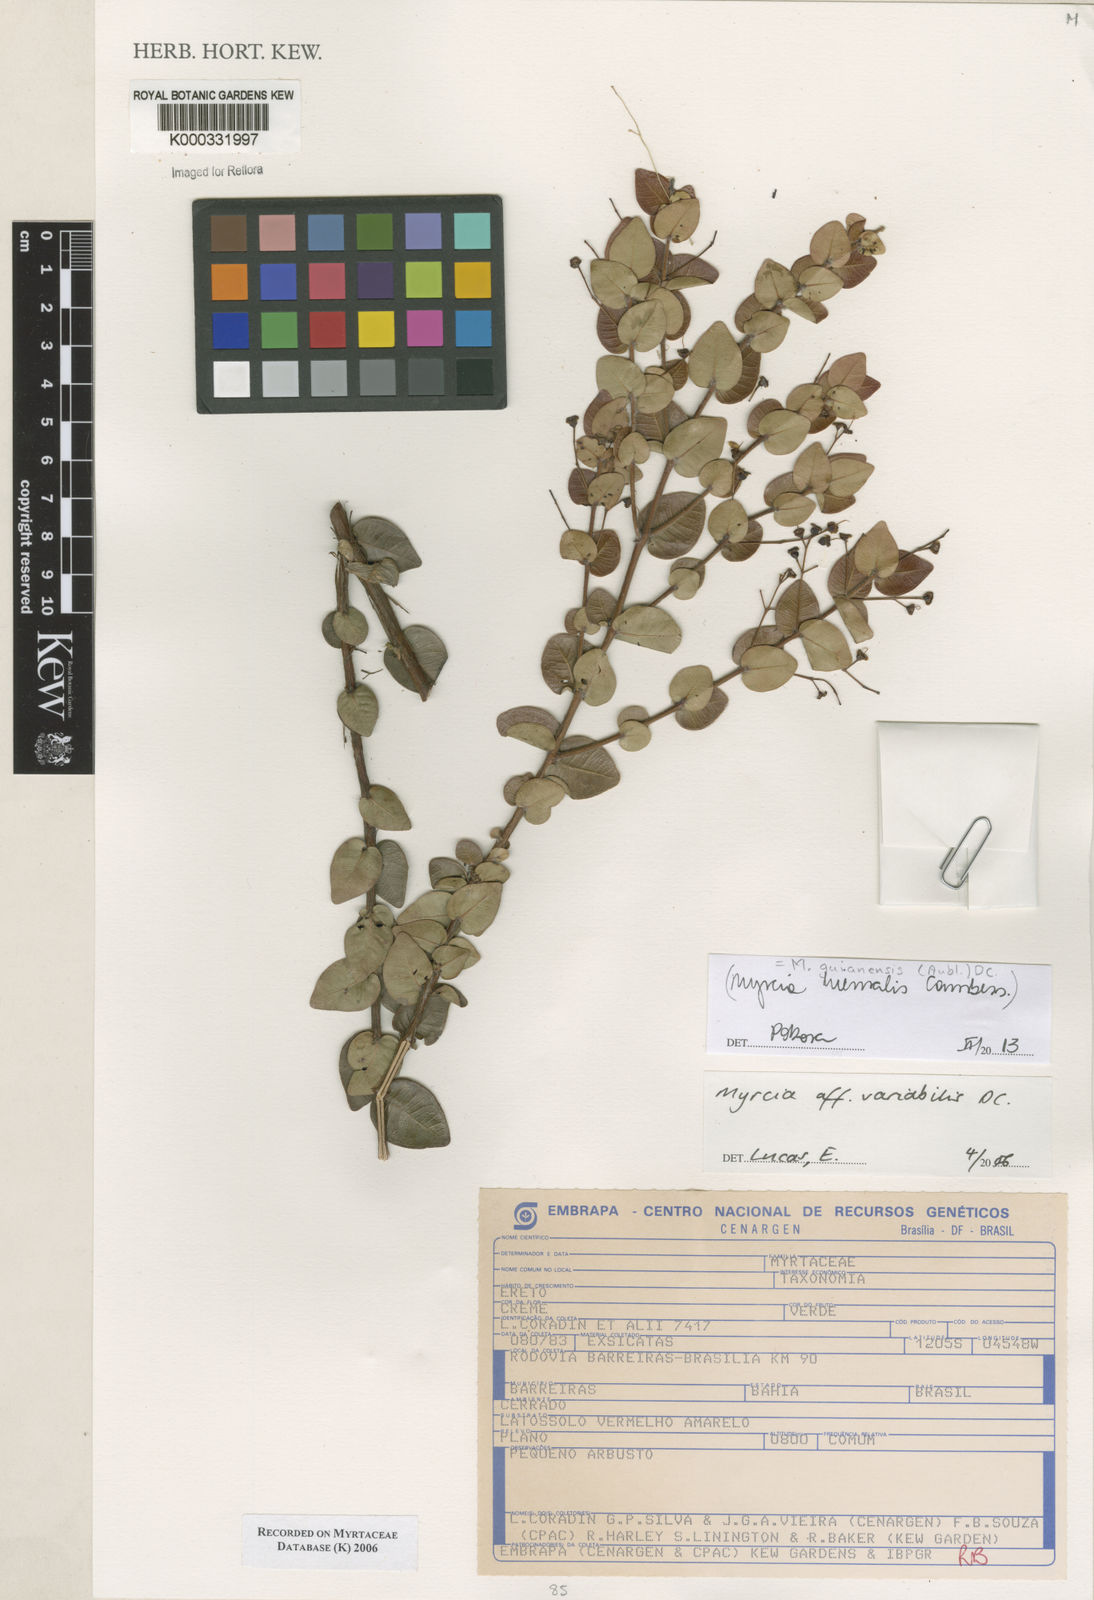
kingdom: Plantae
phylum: Tracheophyta
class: Magnoliopsida
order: Myrtales
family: Myrtaceae
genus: Myrcia
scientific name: Myrcia racemulosa
